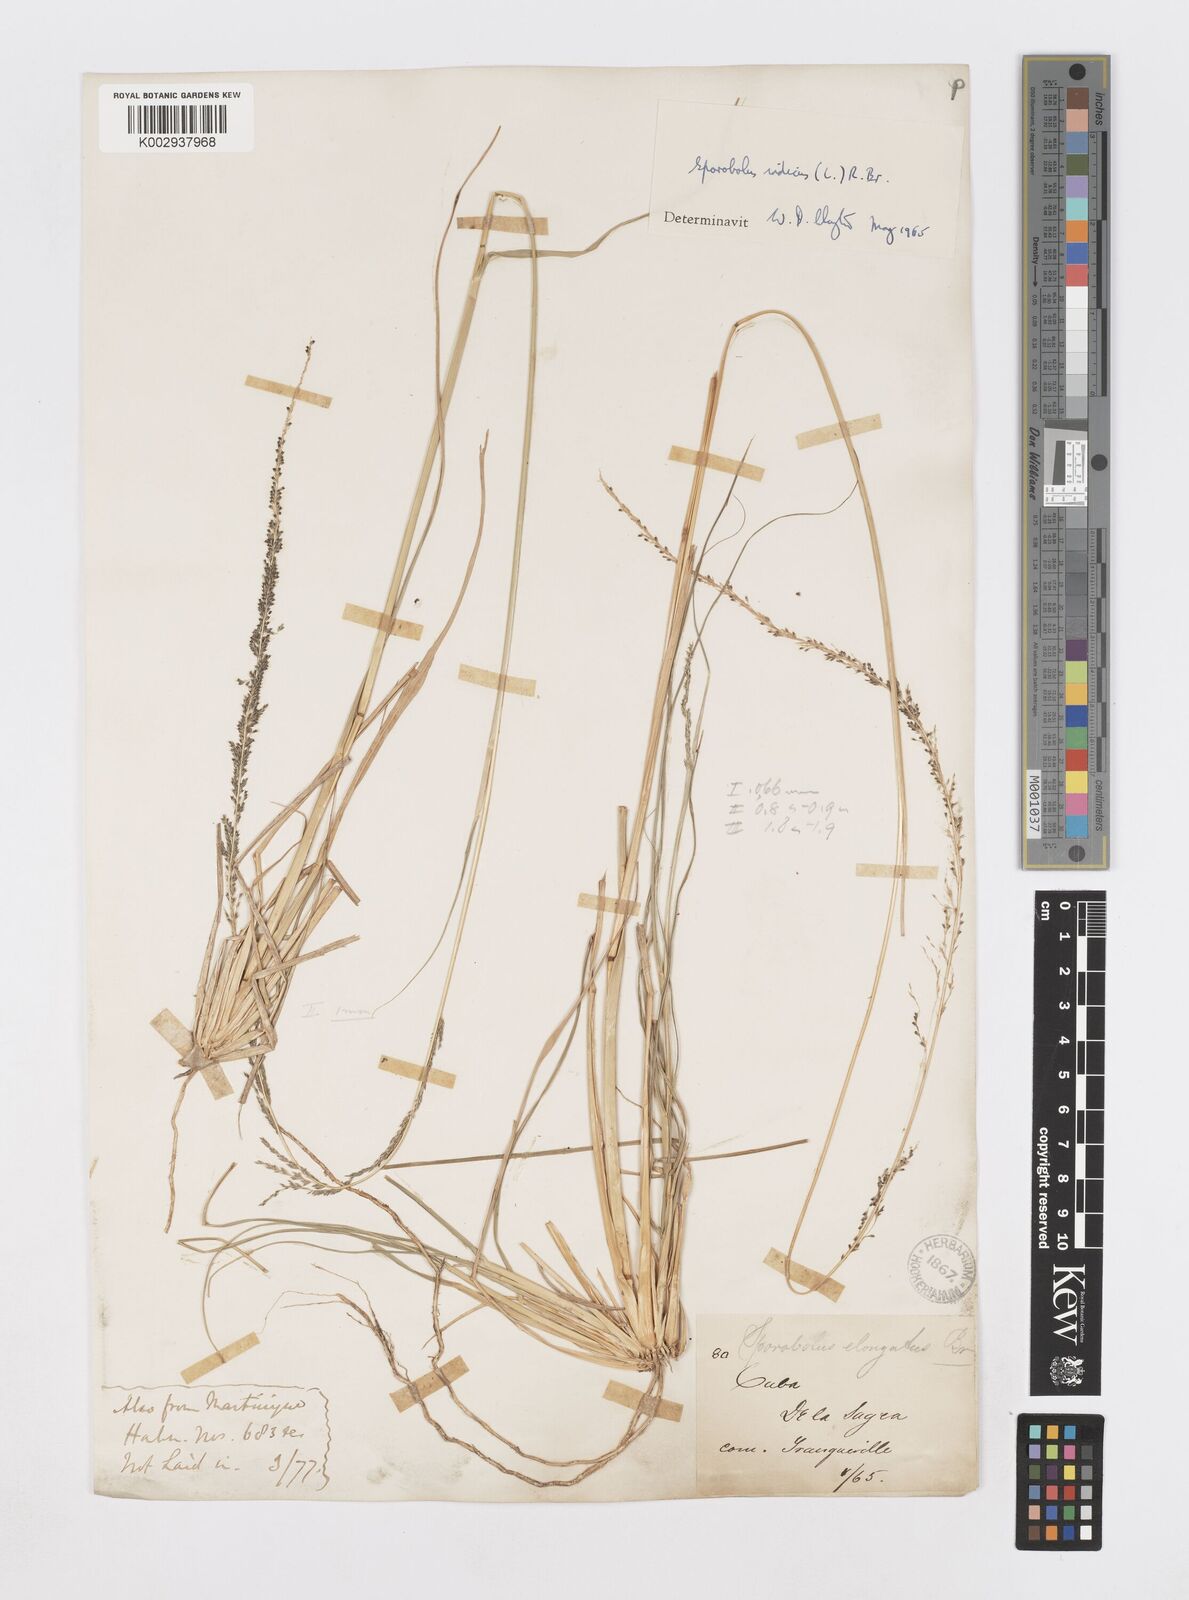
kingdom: Plantae
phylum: Tracheophyta
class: Liliopsida
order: Poales
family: Poaceae
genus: Sporobolus
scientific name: Sporobolus indicus
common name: Smut grass
